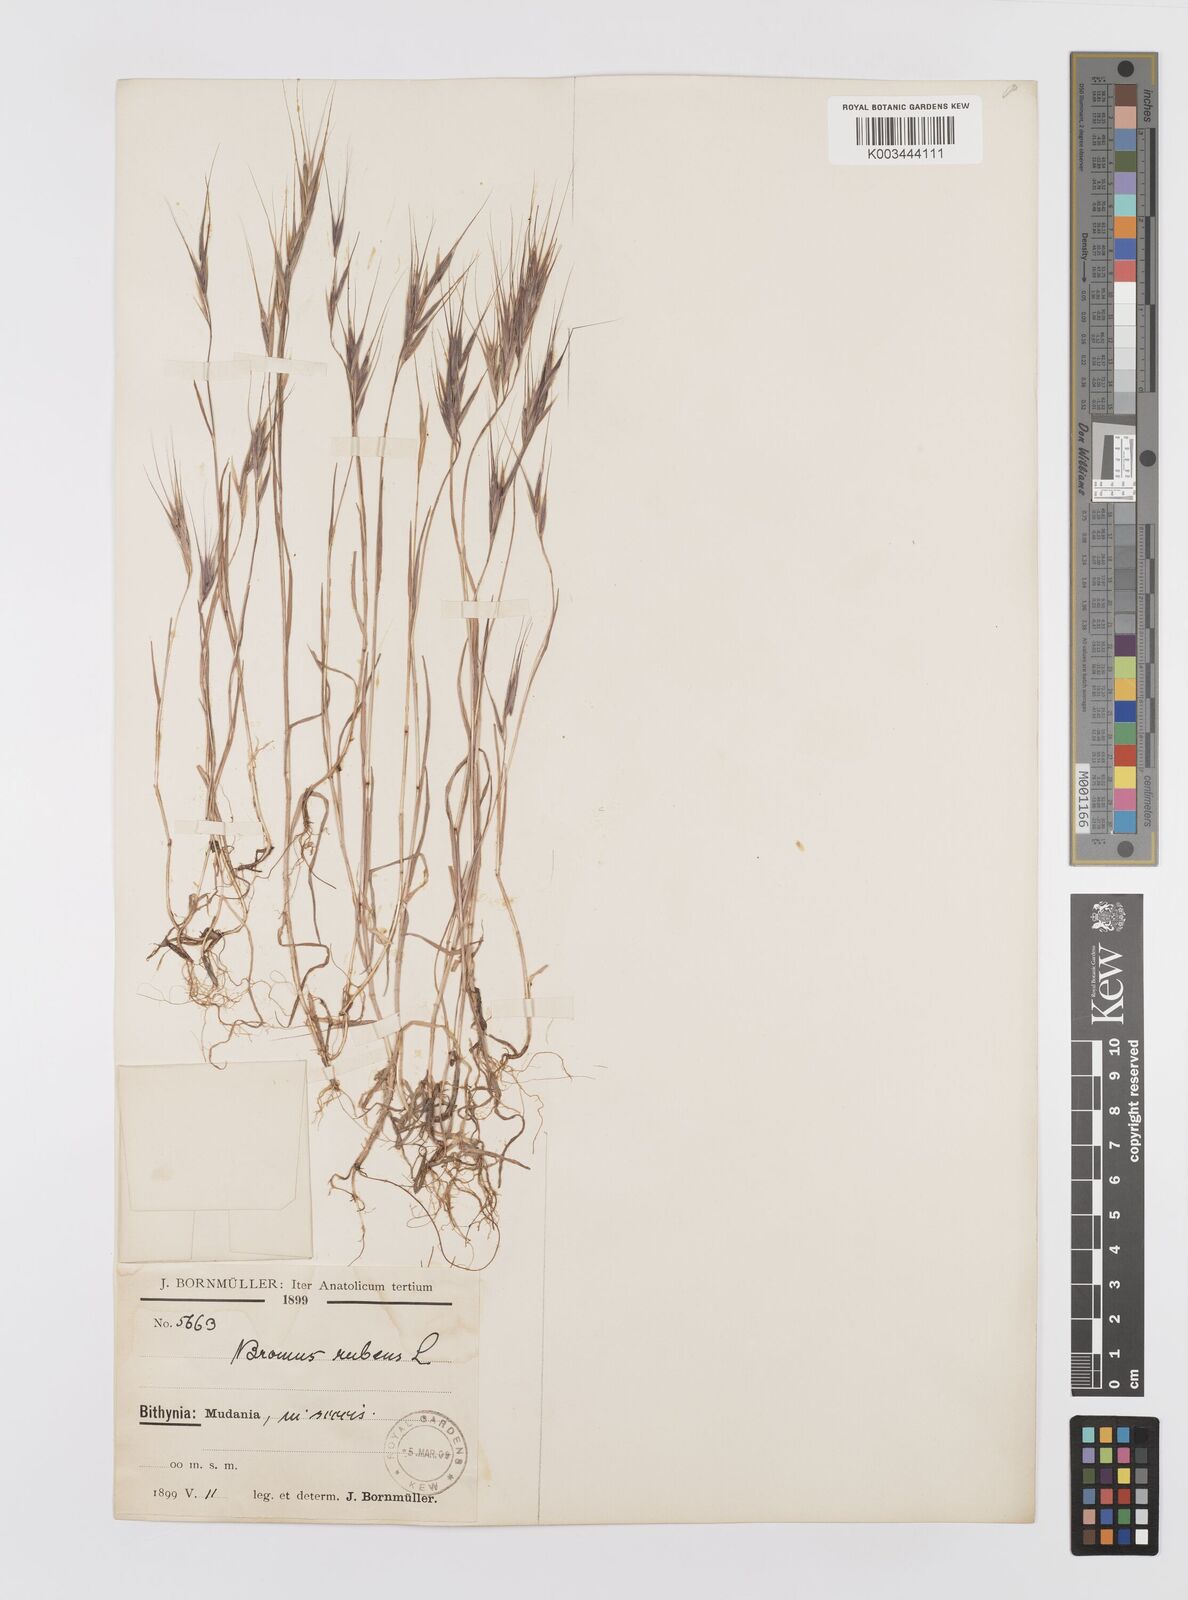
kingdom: Plantae
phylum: Tracheophyta
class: Liliopsida
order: Poales
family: Poaceae
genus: Bromus
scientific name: Bromus madritensis
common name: Compact brome
